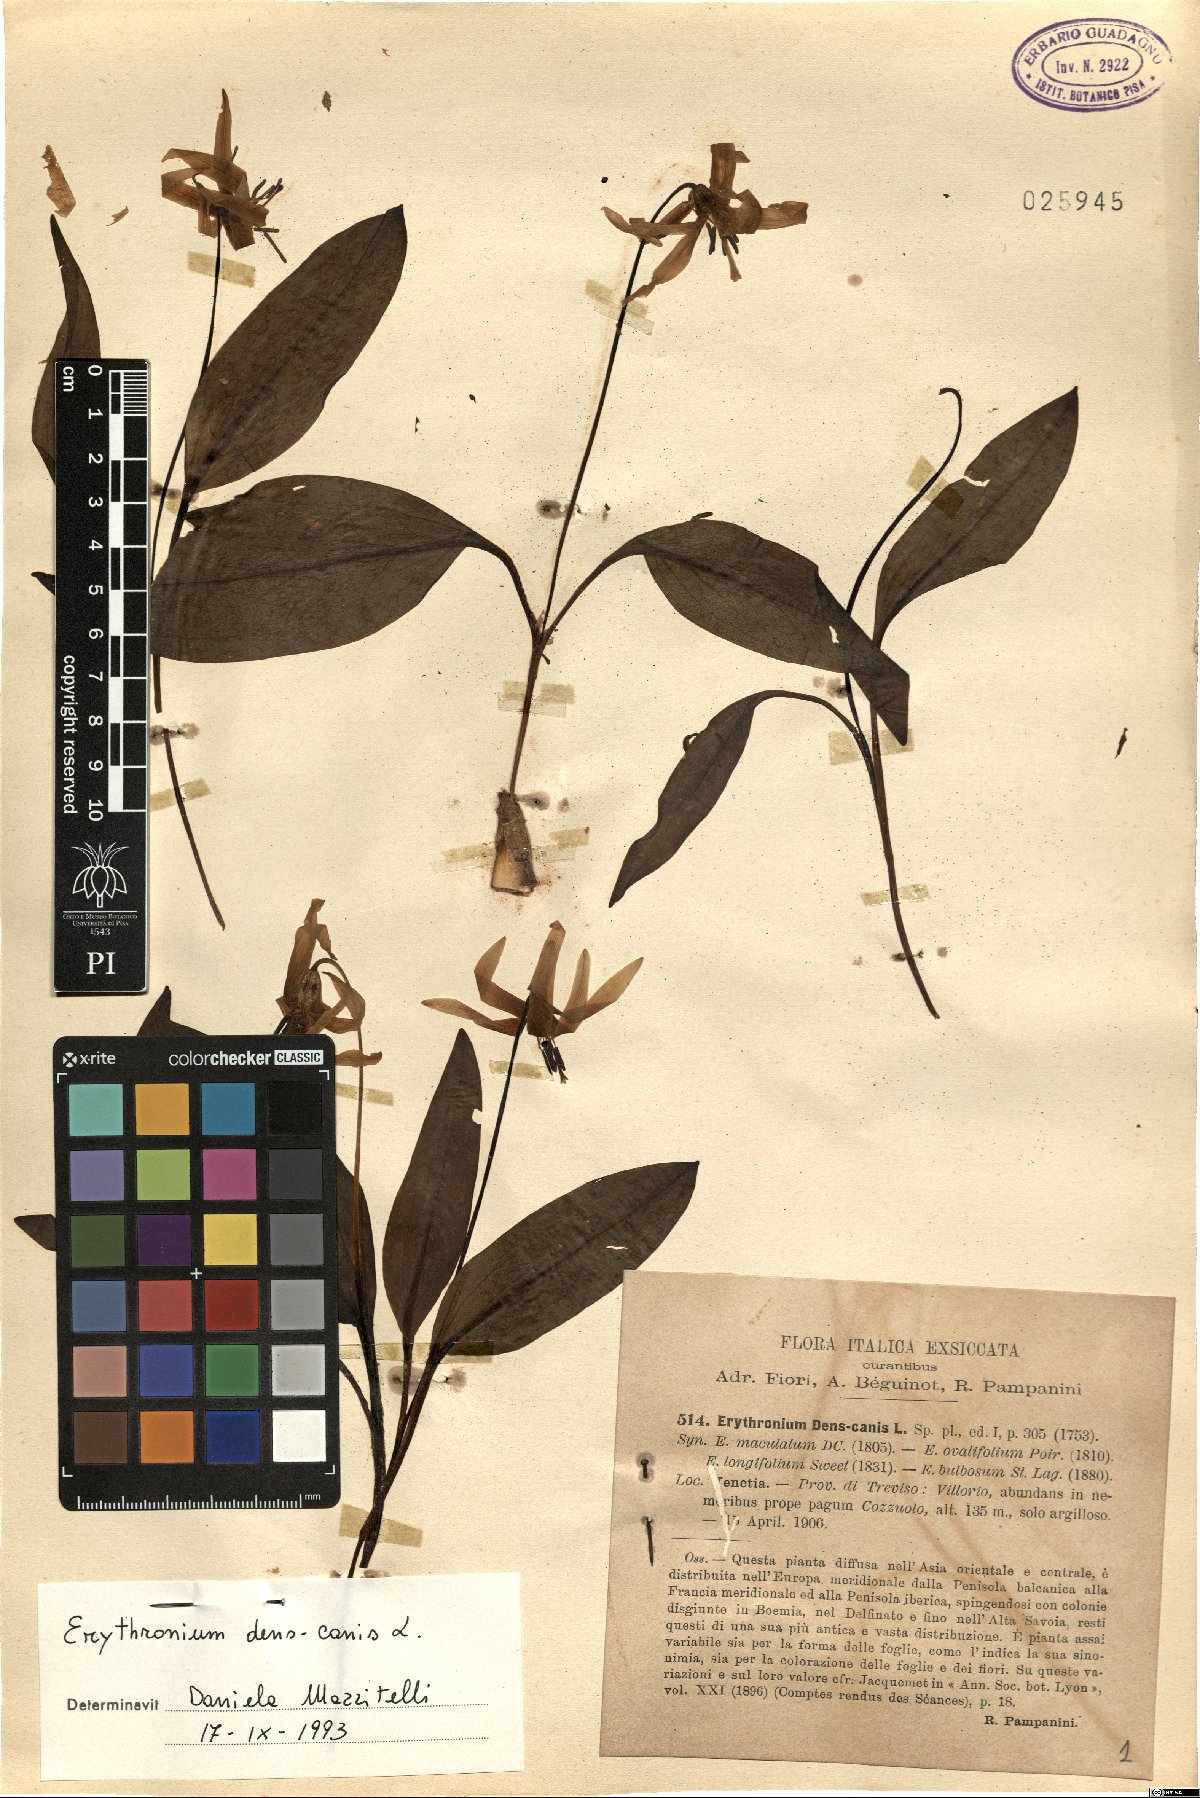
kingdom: Plantae
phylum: Tracheophyta
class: Liliopsida
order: Liliales
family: Liliaceae
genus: Erythronium
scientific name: Erythronium dens-canis
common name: Dog's-tooth-violet
